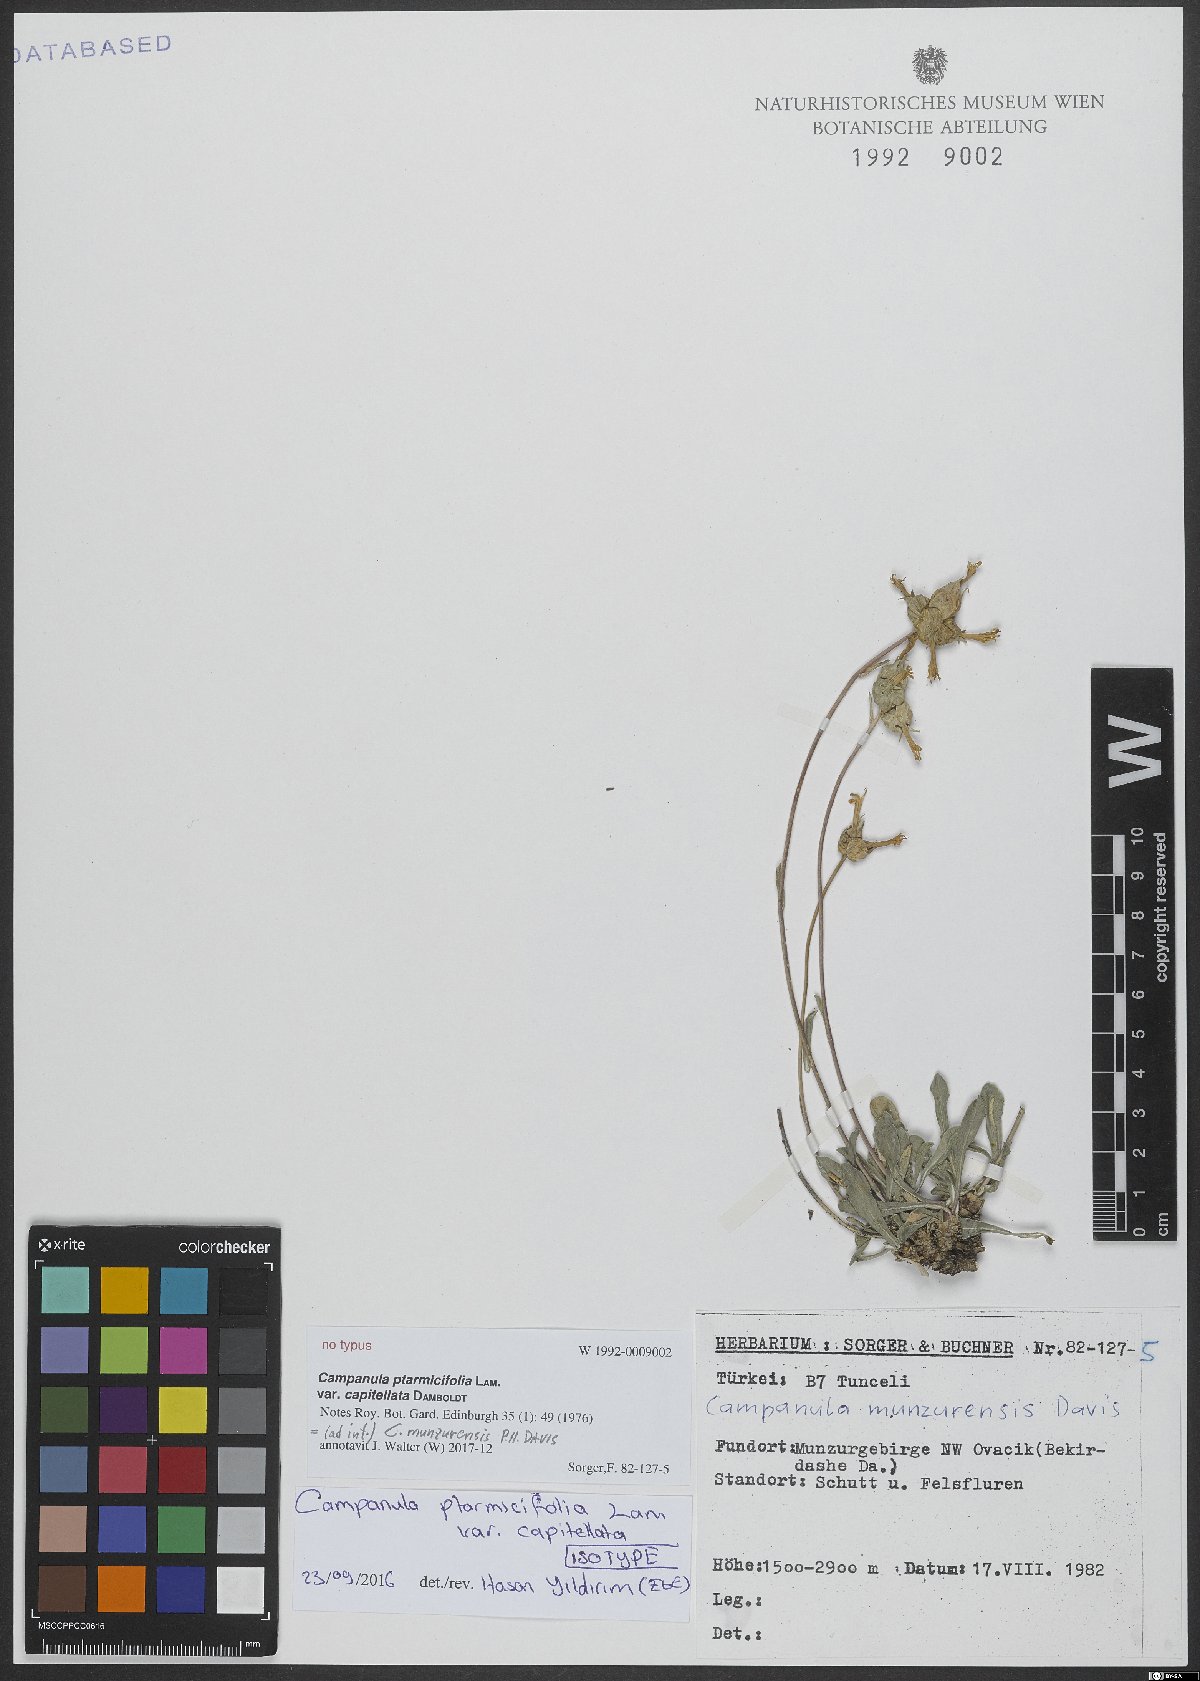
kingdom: Plantae
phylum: Tracheophyta
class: Magnoliopsida
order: Asterales
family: Campanulaceae
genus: Campanula
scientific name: Campanula munzurensis
